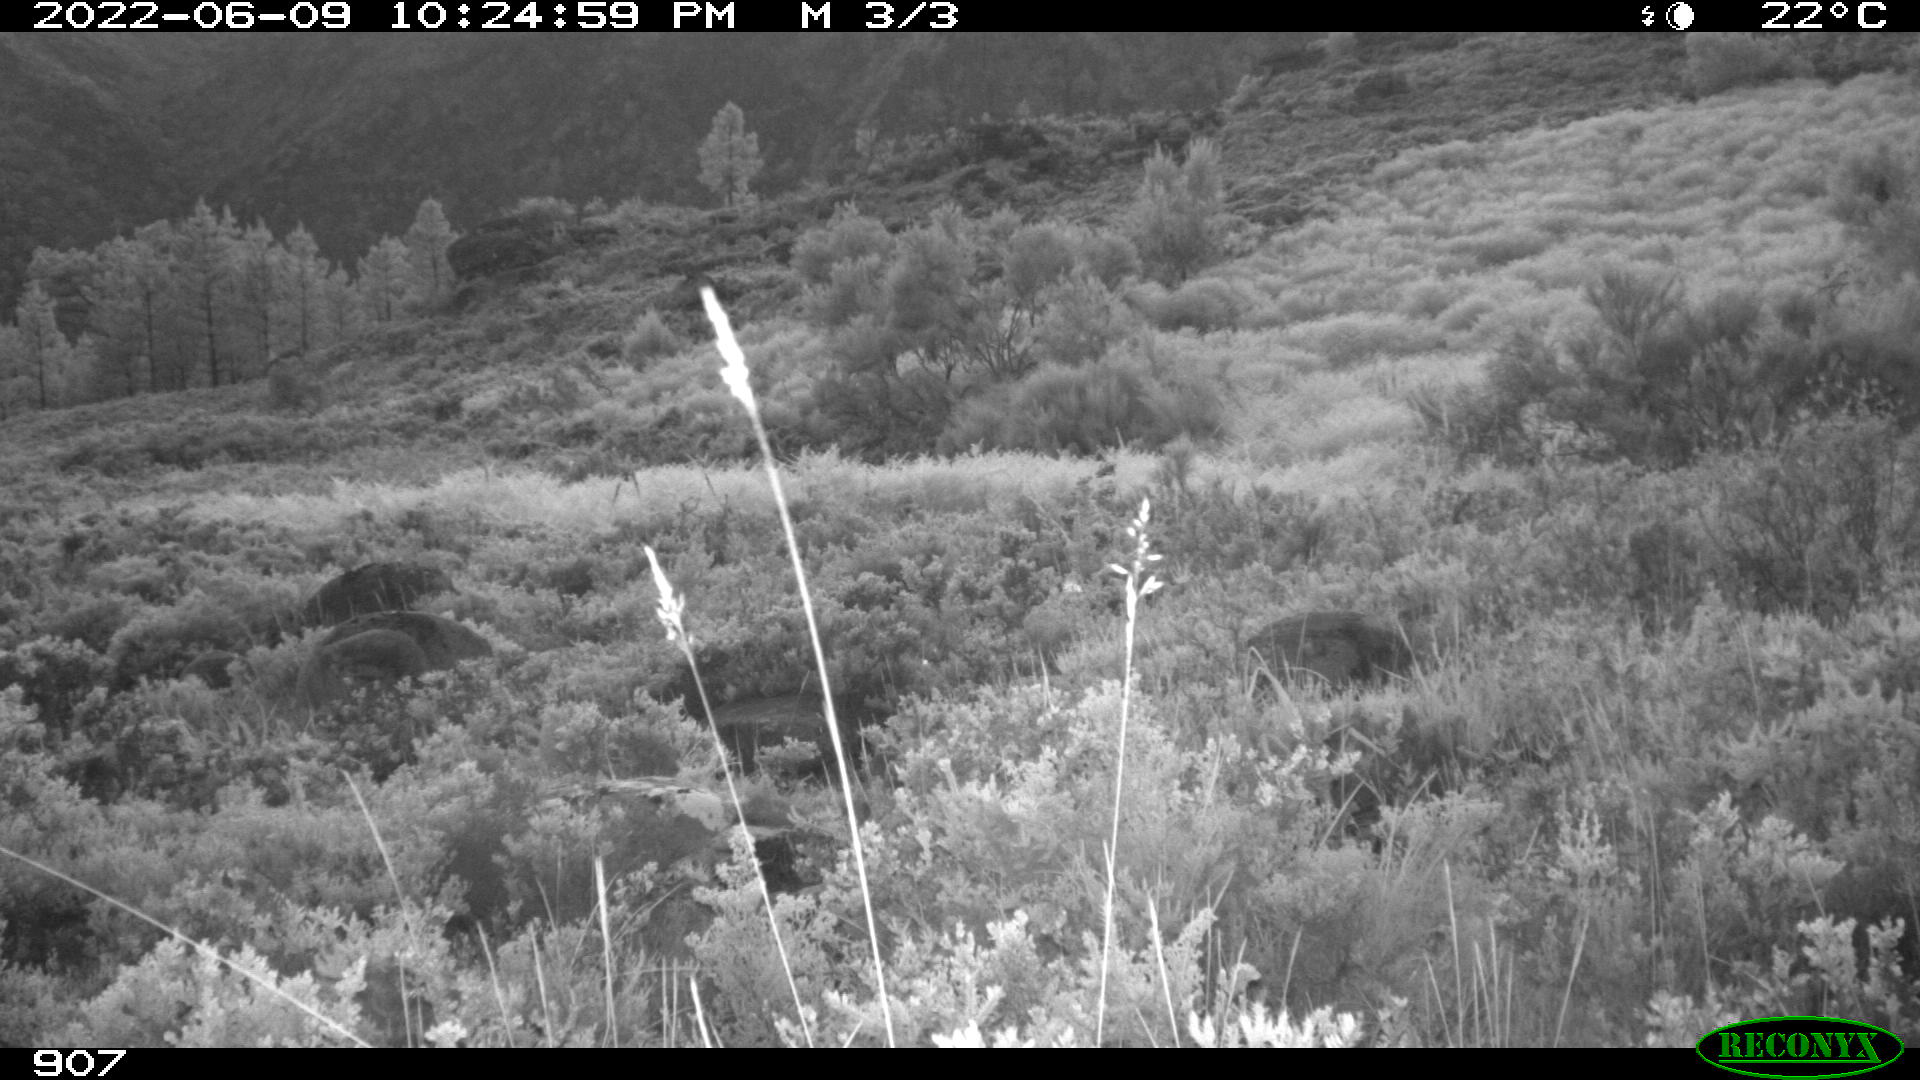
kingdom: Animalia
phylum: Chordata
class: Mammalia
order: Artiodactyla
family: Bovidae
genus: Bos
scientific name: Bos taurus
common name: Domesticated cattle
